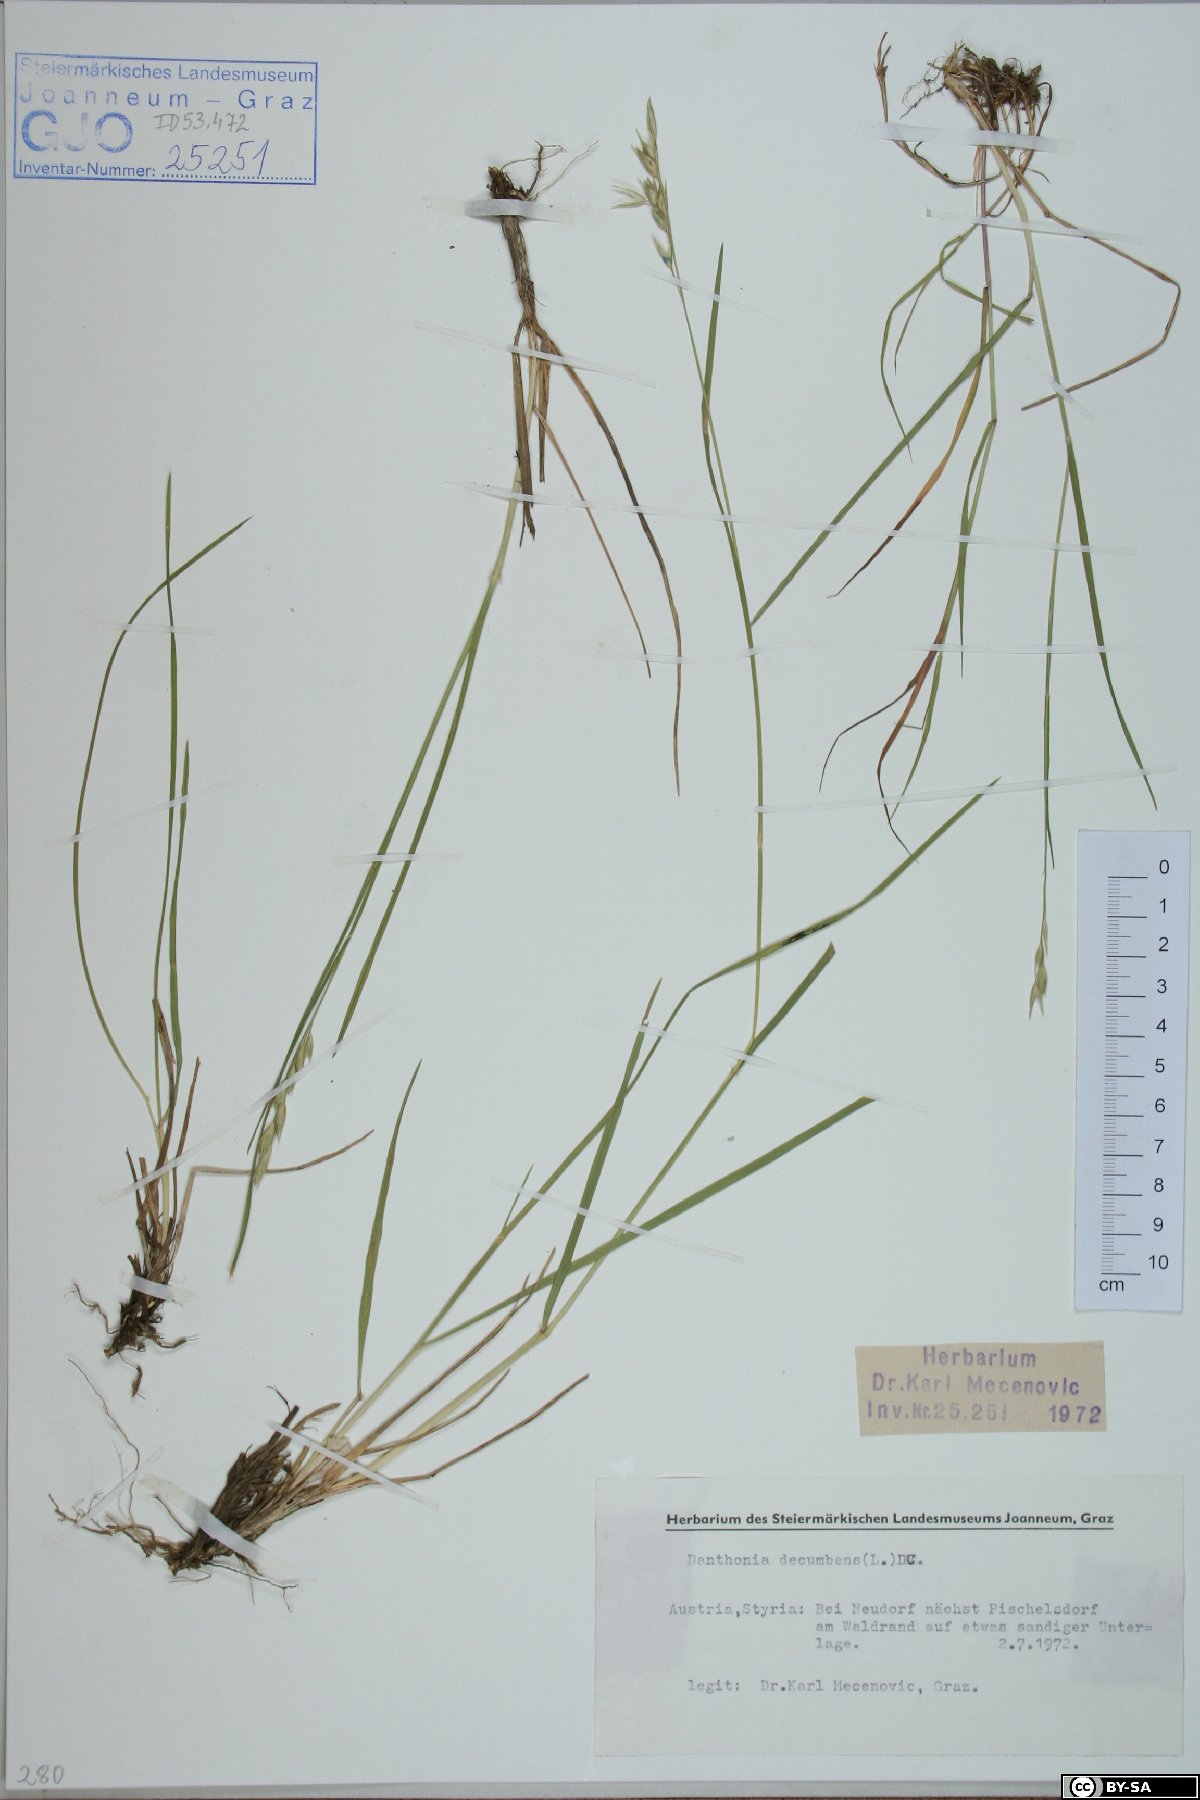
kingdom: Plantae
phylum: Tracheophyta
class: Liliopsida
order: Poales
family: Poaceae
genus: Danthonia
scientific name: Danthonia decumbens
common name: Common heathgrass
